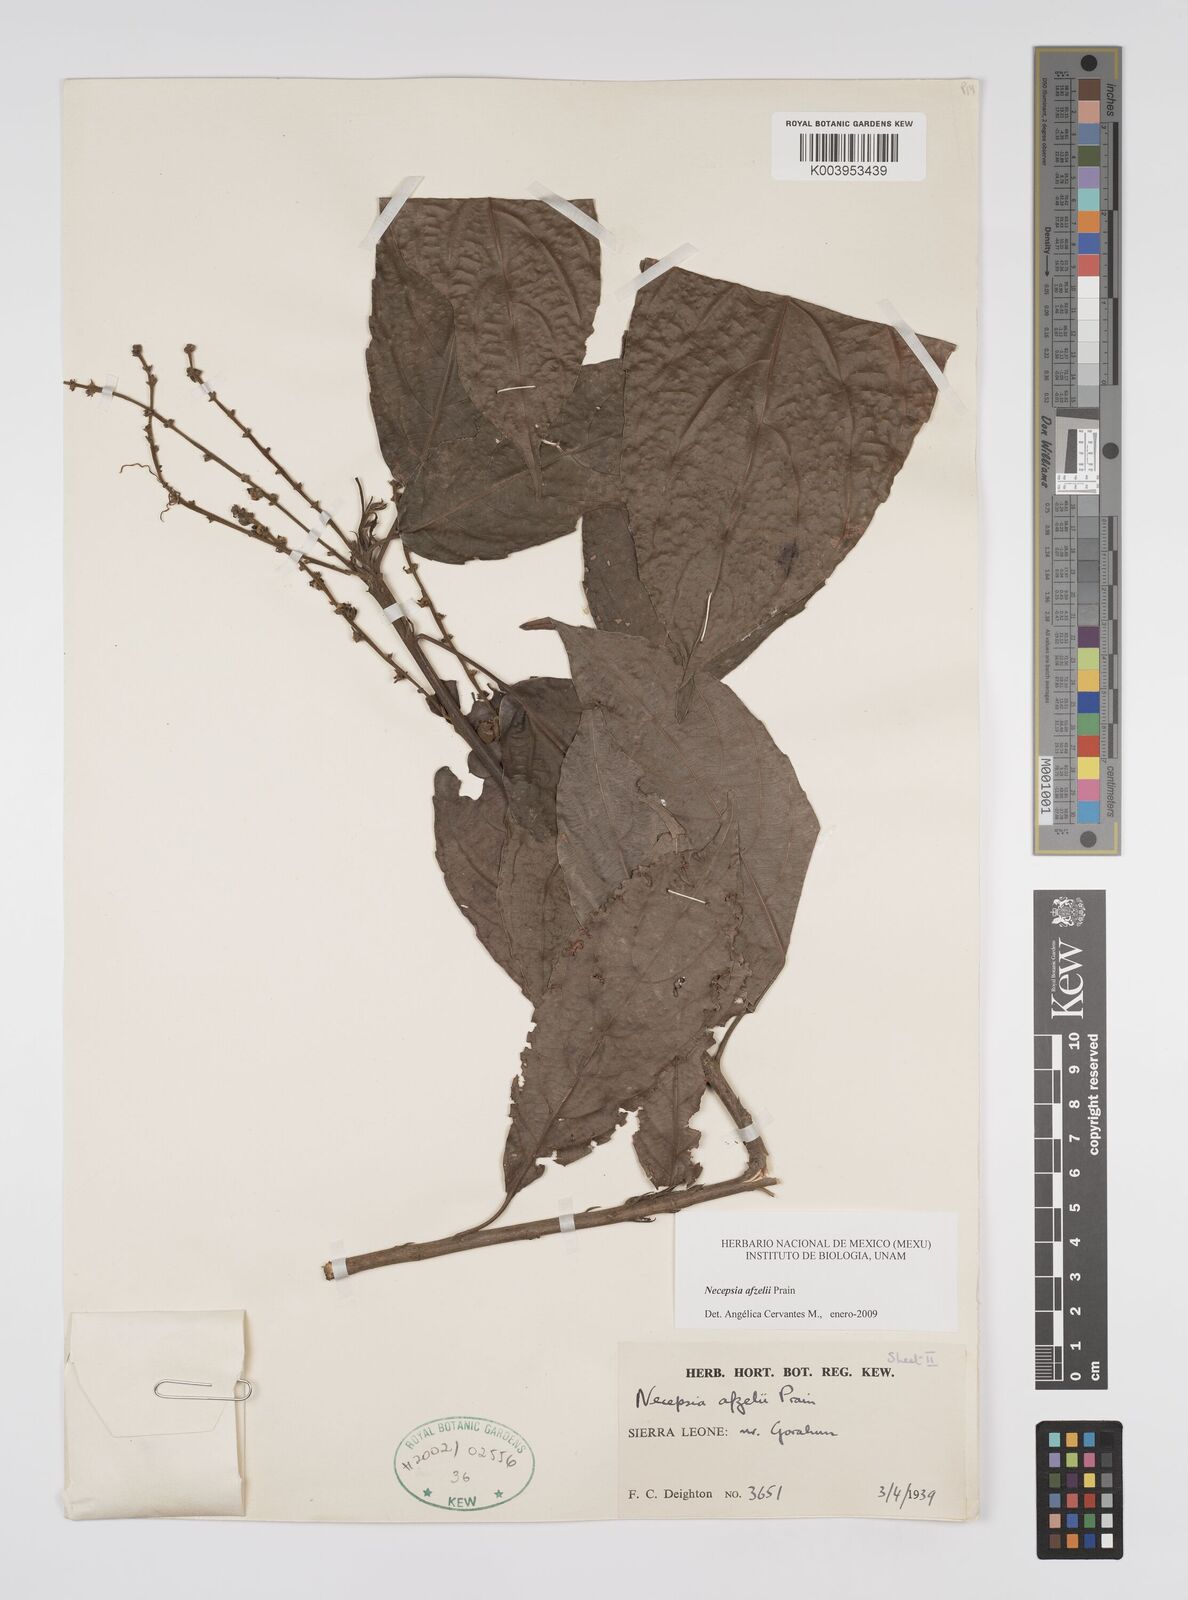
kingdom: Plantae
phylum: Tracheophyta
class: Magnoliopsida
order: Malpighiales
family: Euphorbiaceae
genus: Necepsia
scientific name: Necepsia afzelii
